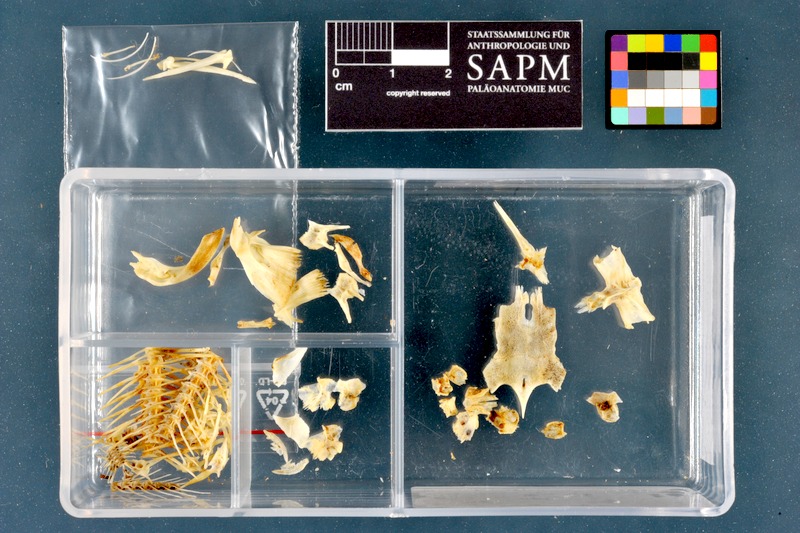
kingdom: Animalia
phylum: Chordata
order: Siluriformes
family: Heteropneustidae
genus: Heteropneustes
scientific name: Heteropneustes fossilis
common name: Stinging catfish
